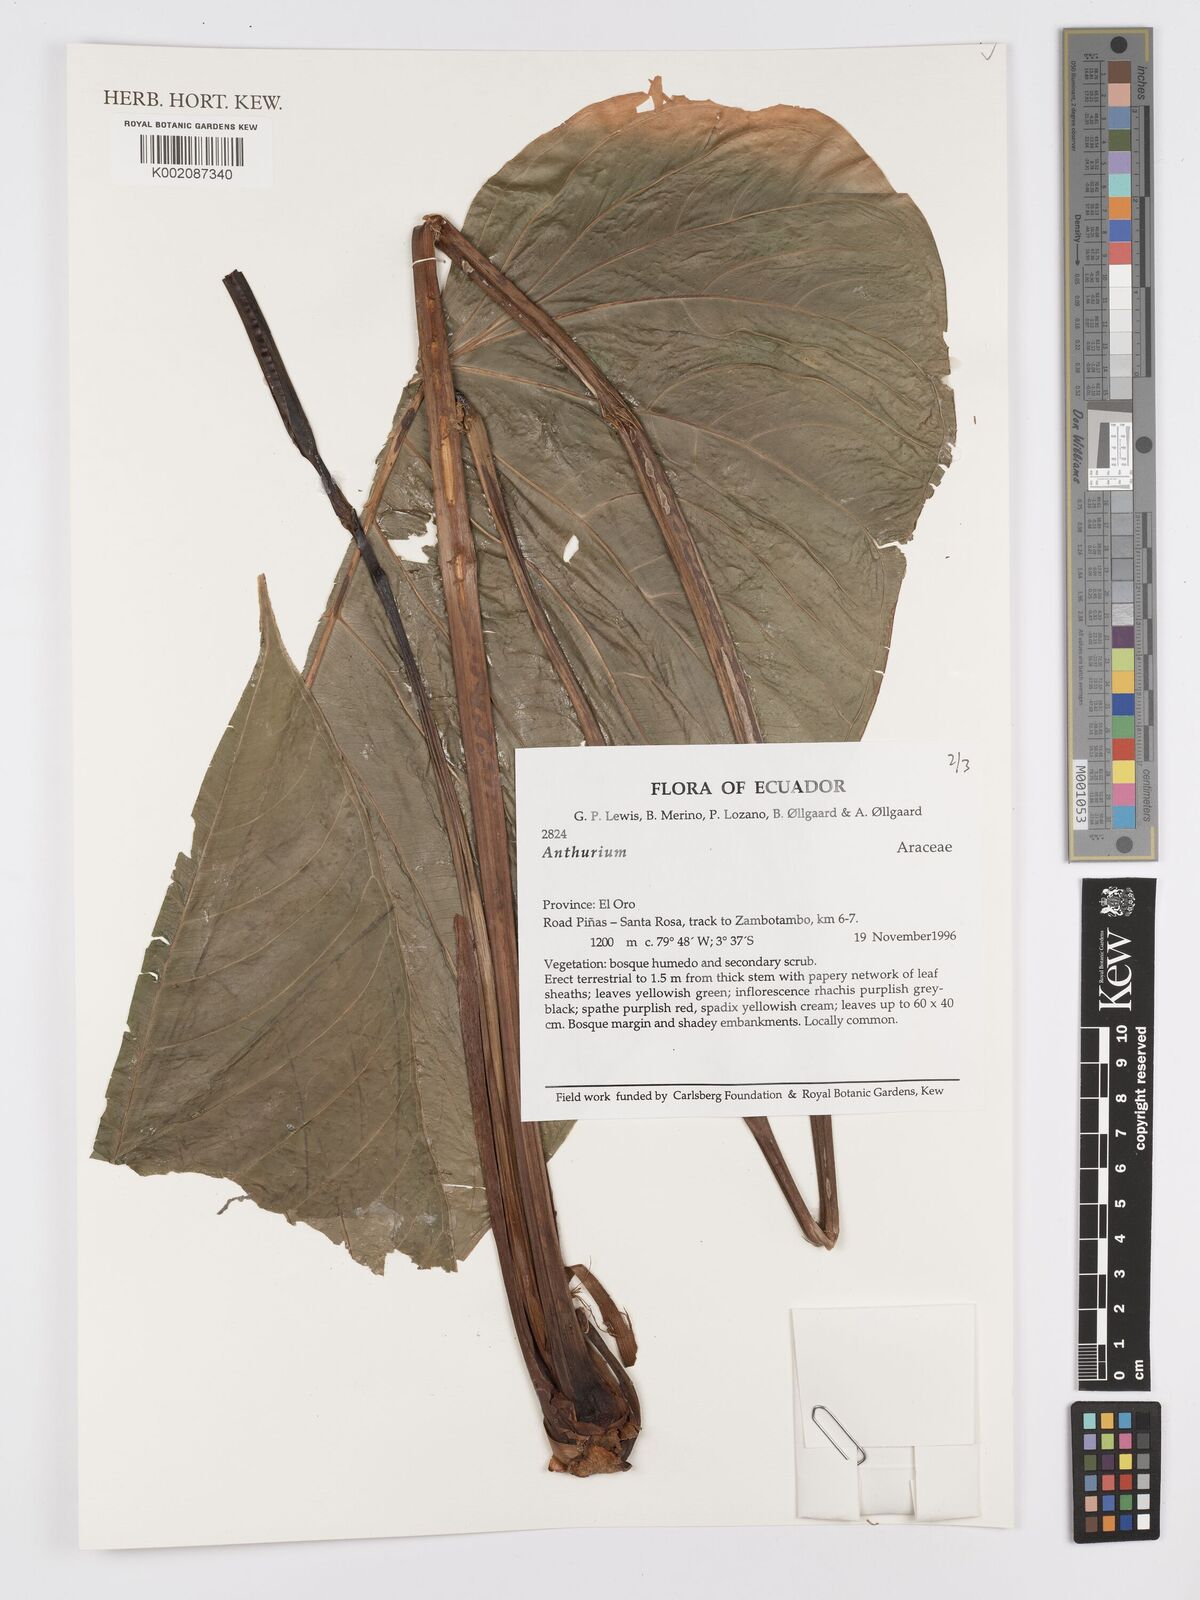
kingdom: Plantae
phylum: Tracheophyta
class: Liliopsida
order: Alismatales
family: Araceae
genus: Anthurium
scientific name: Anthurium
